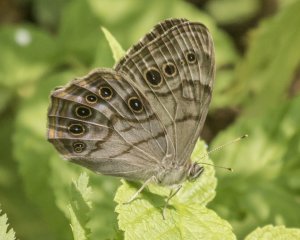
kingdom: Animalia
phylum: Arthropoda
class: Insecta
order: Lepidoptera
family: Nymphalidae
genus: Lethe
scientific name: Lethe anthedon
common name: Northern Pearly-Eye
